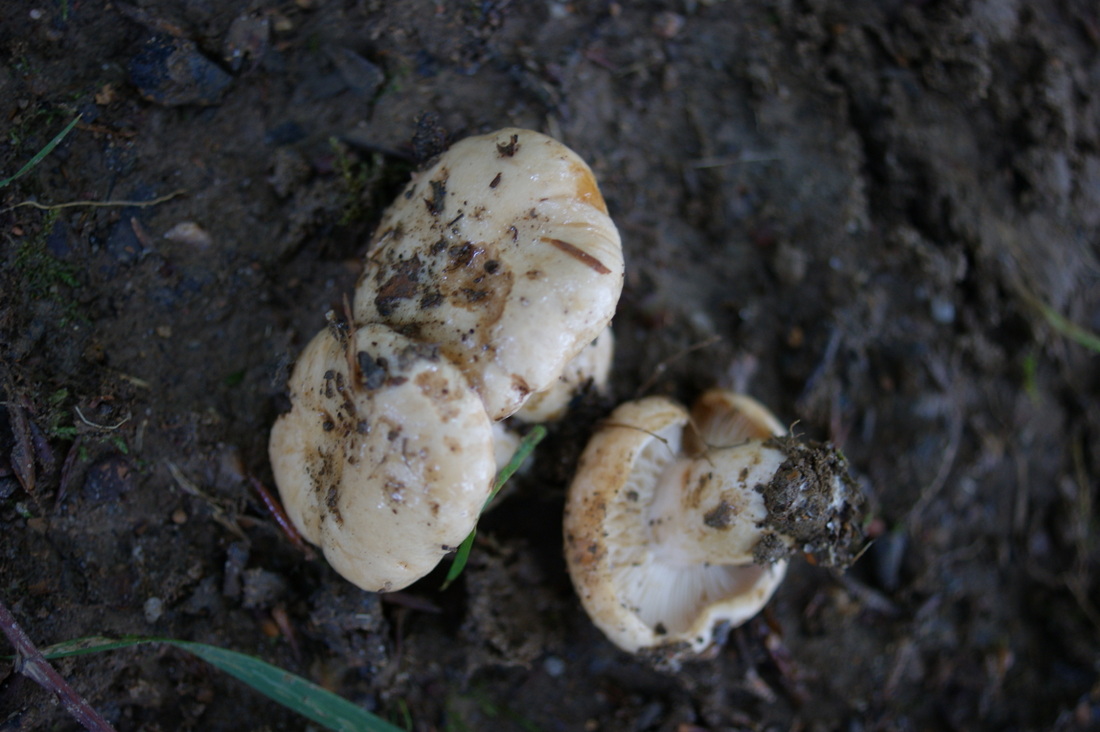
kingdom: Fungi
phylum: Basidiomycota
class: Agaricomycetes
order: Russulales
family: Russulaceae
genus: Lactarius
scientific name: Lactarius pallidus
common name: bleg mælkehat
